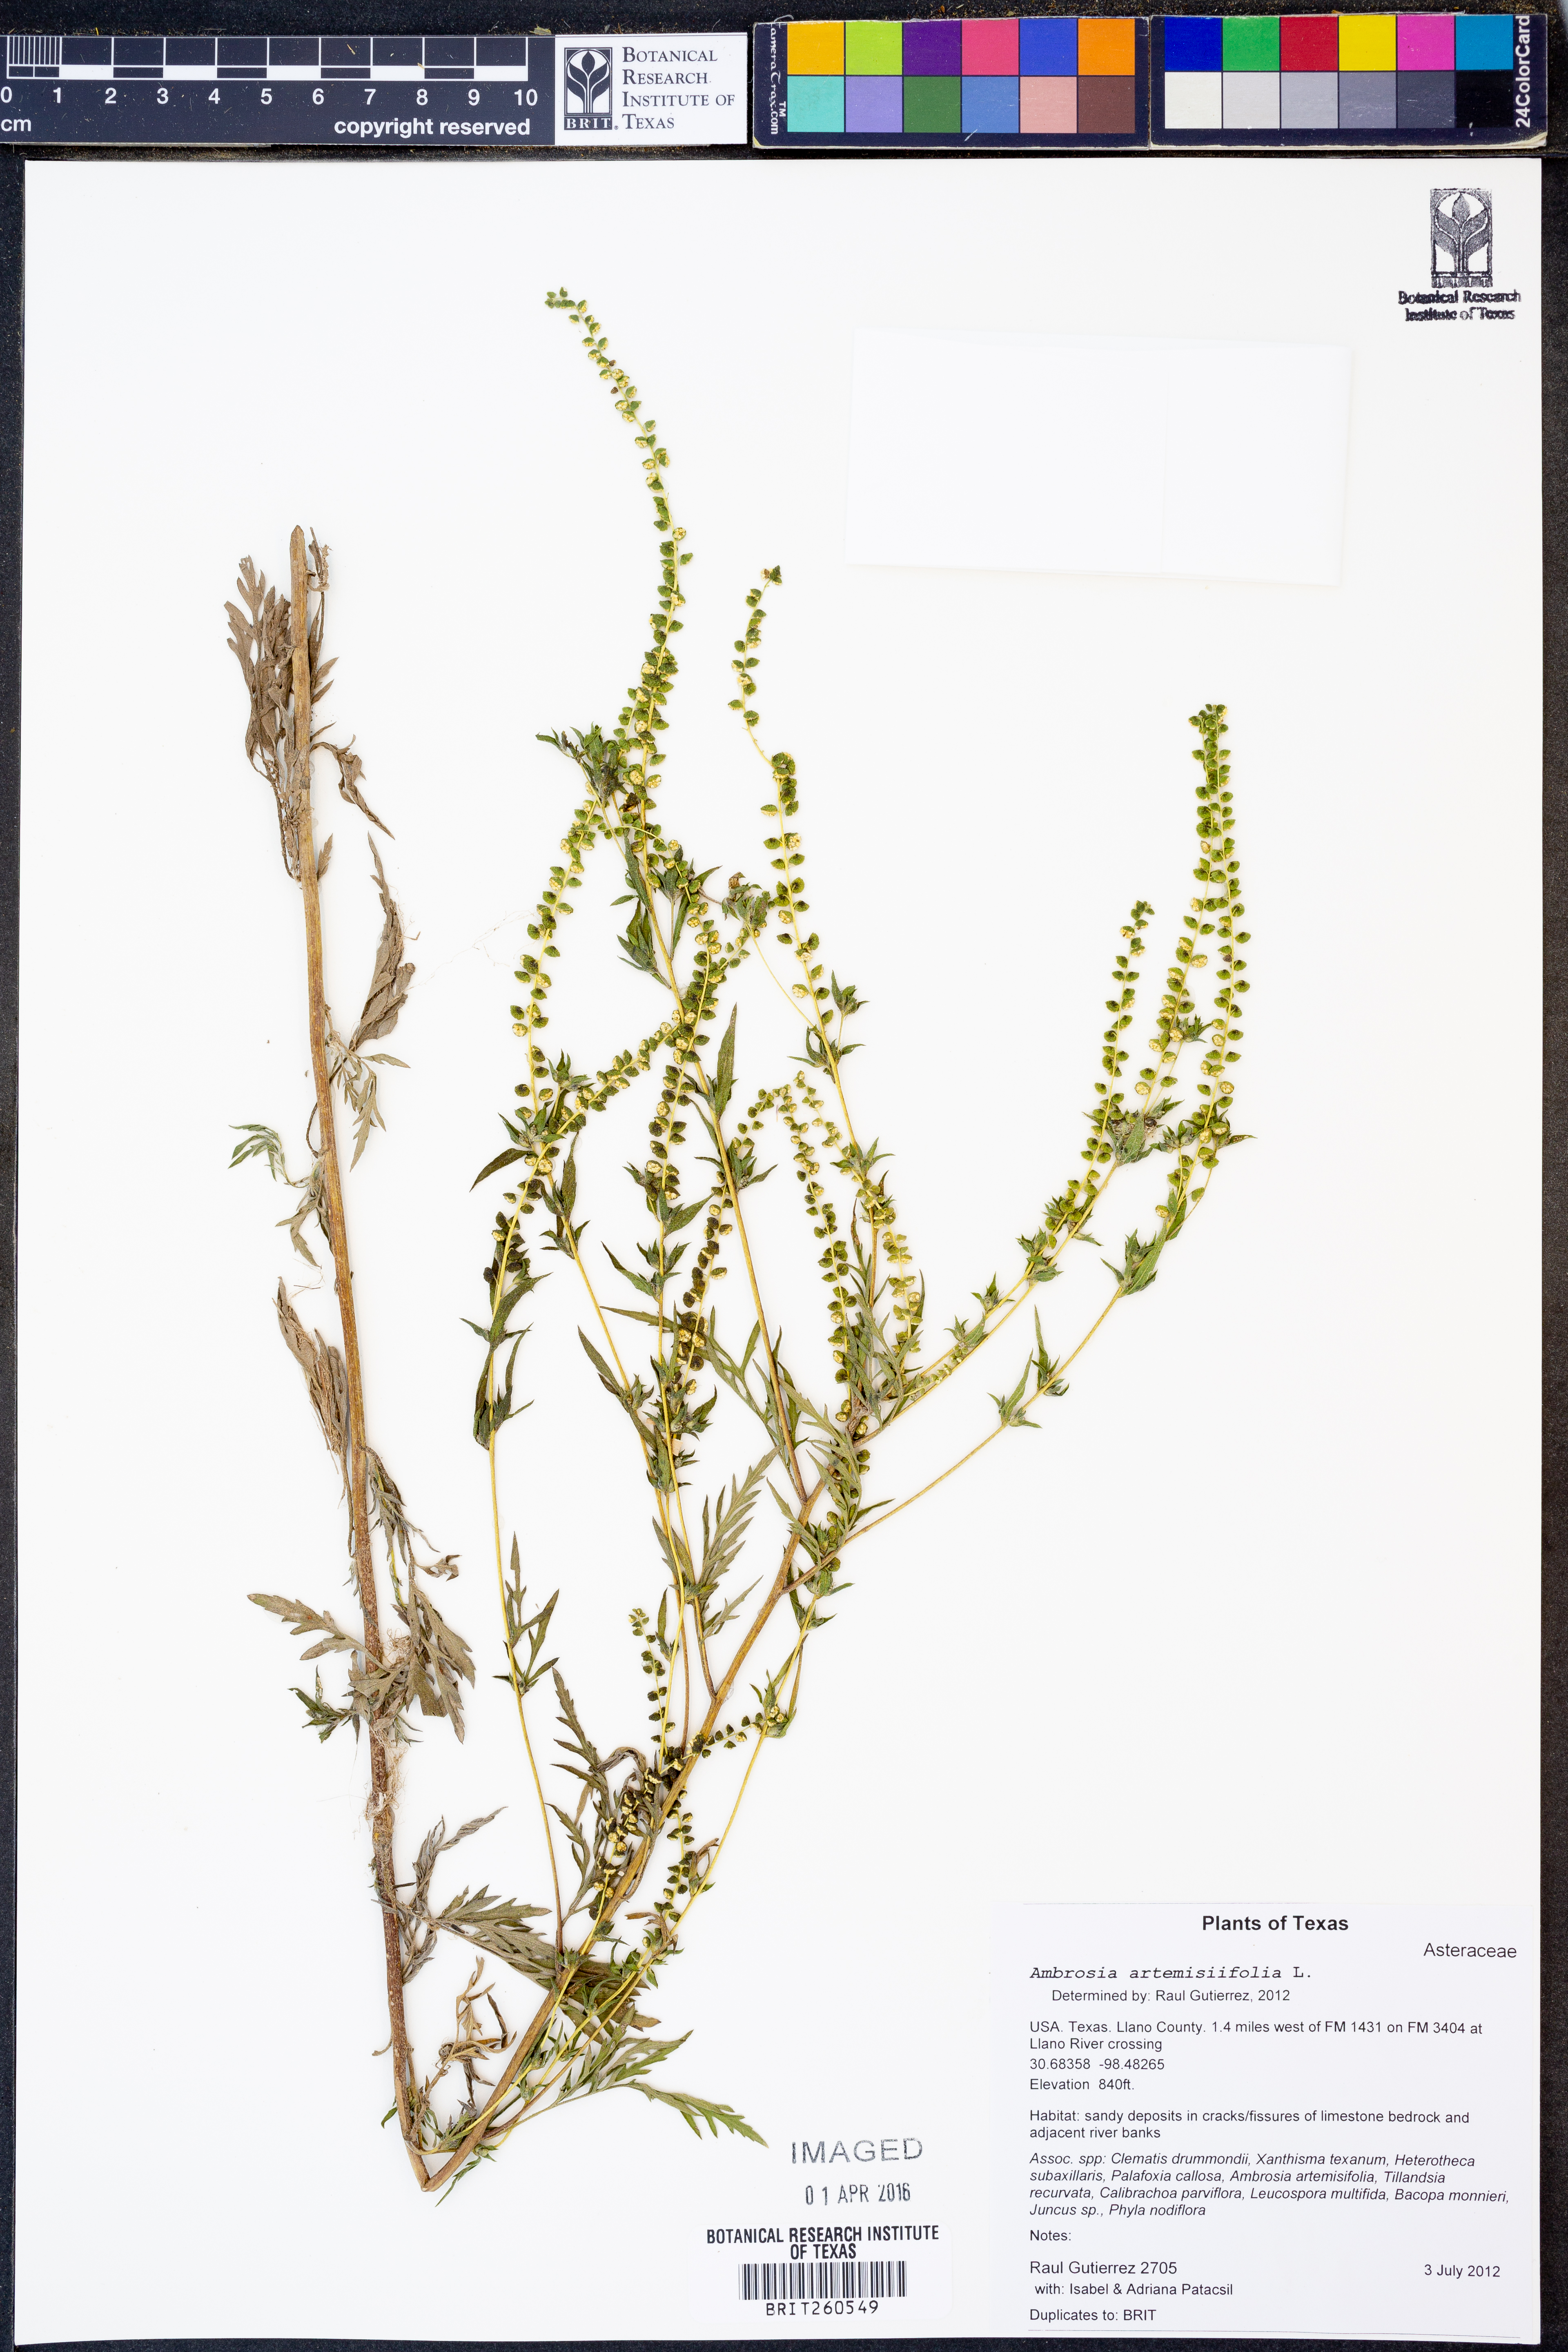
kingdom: Plantae
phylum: Tracheophyta
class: Magnoliopsida
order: Asterales
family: Asteraceae
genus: Ambrosia
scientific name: Ambrosia artemisiifolia
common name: Annual ragweed
